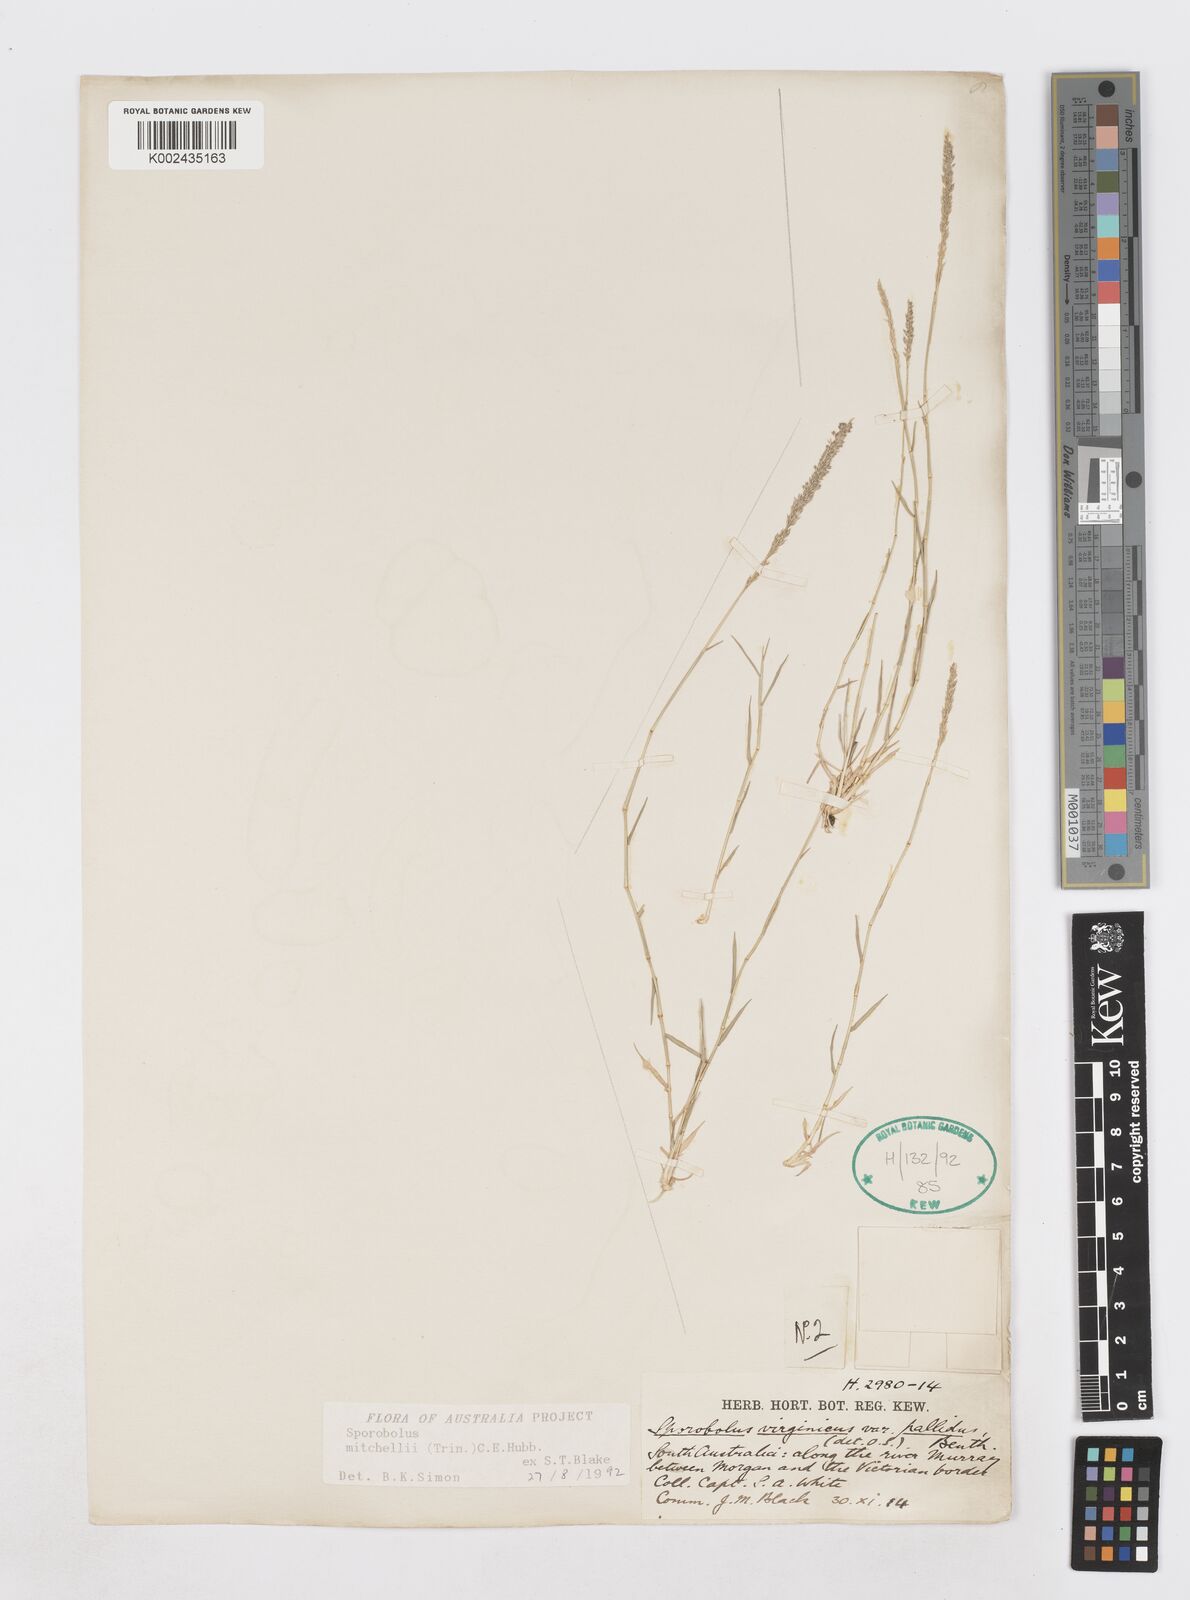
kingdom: Plantae
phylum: Tracheophyta
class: Liliopsida
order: Poales
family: Poaceae
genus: Sporobolus
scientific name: Sporobolus mitchellii
